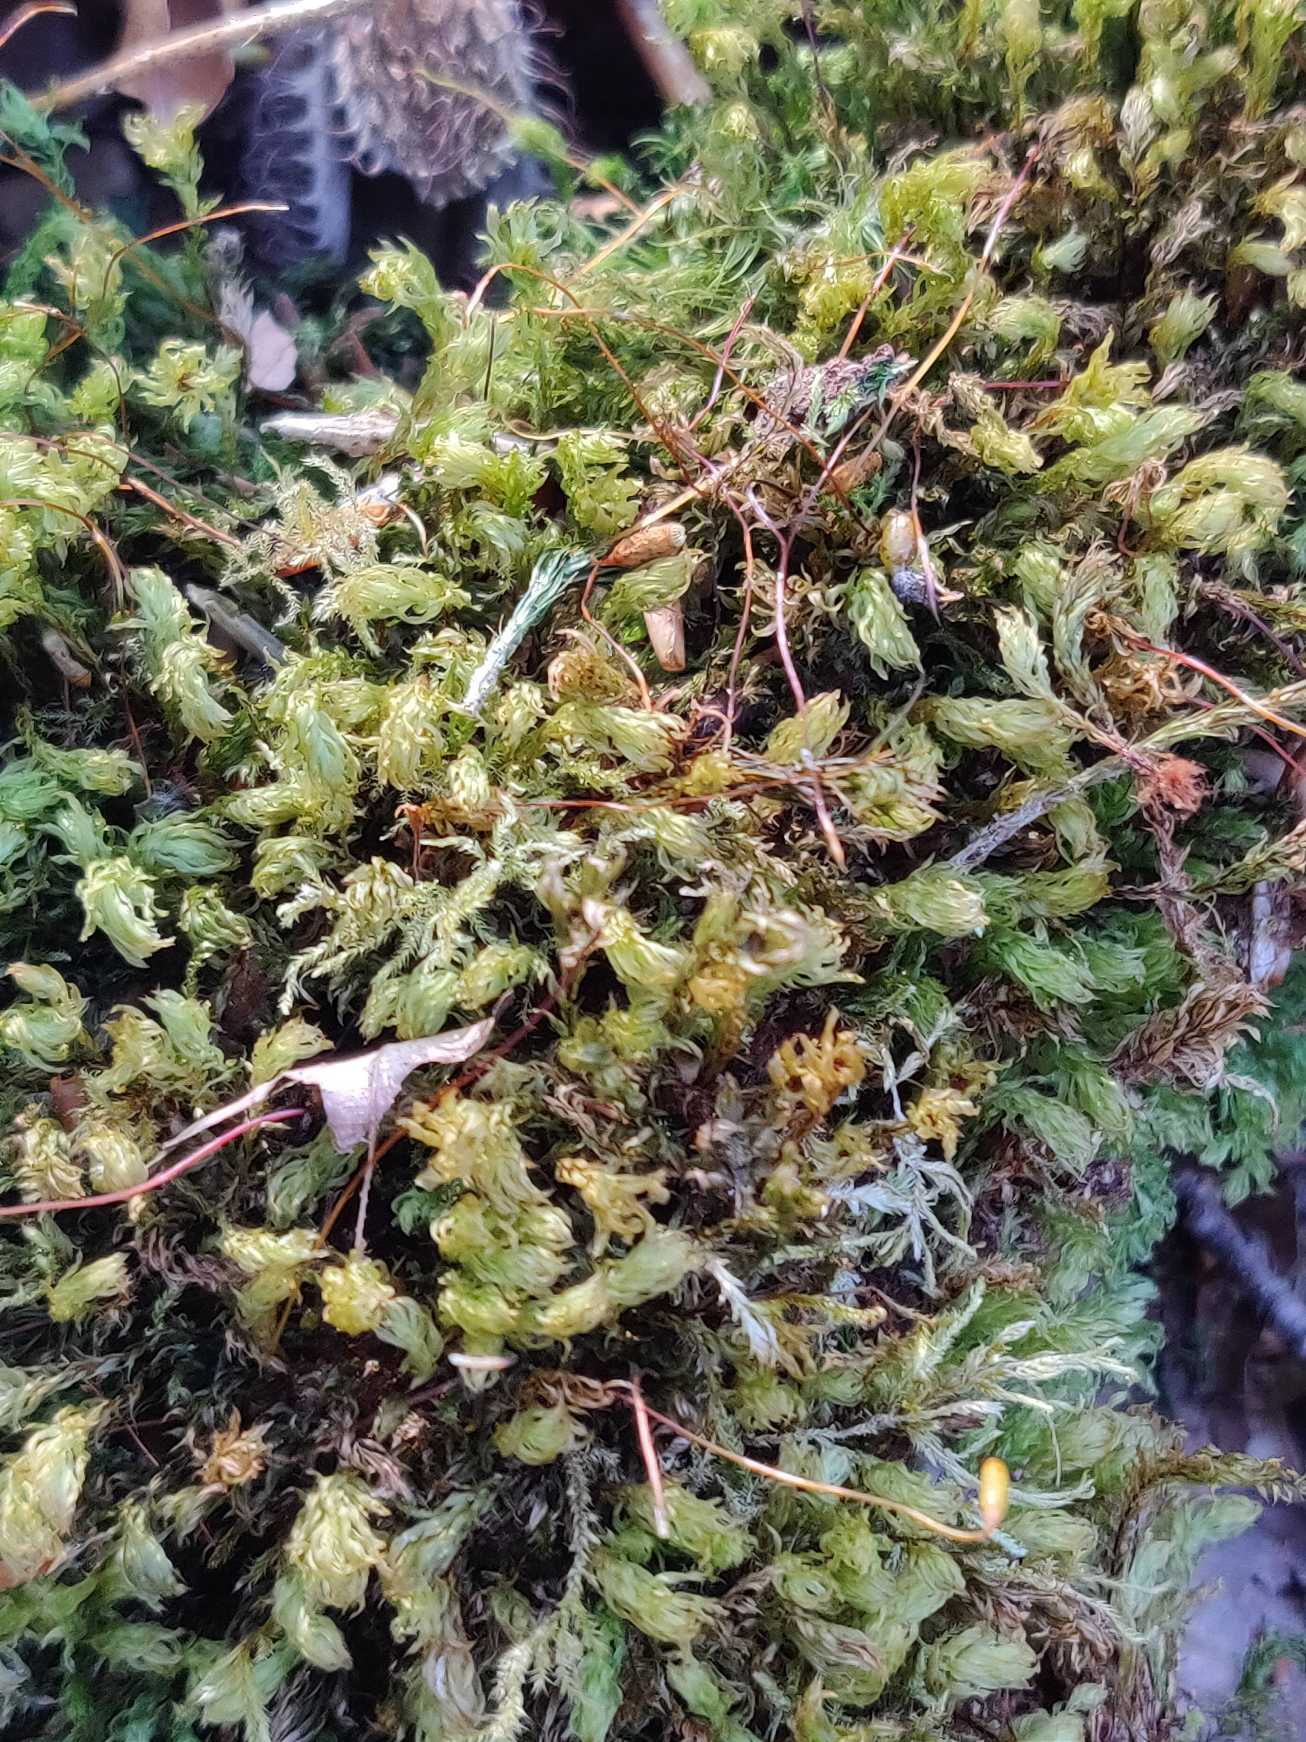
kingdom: Plantae
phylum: Bryophyta
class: Bryopsida
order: Bryales
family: Mniaceae
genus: Mnium
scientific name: Mnium hornum
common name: Brunfiltet stjernemos
